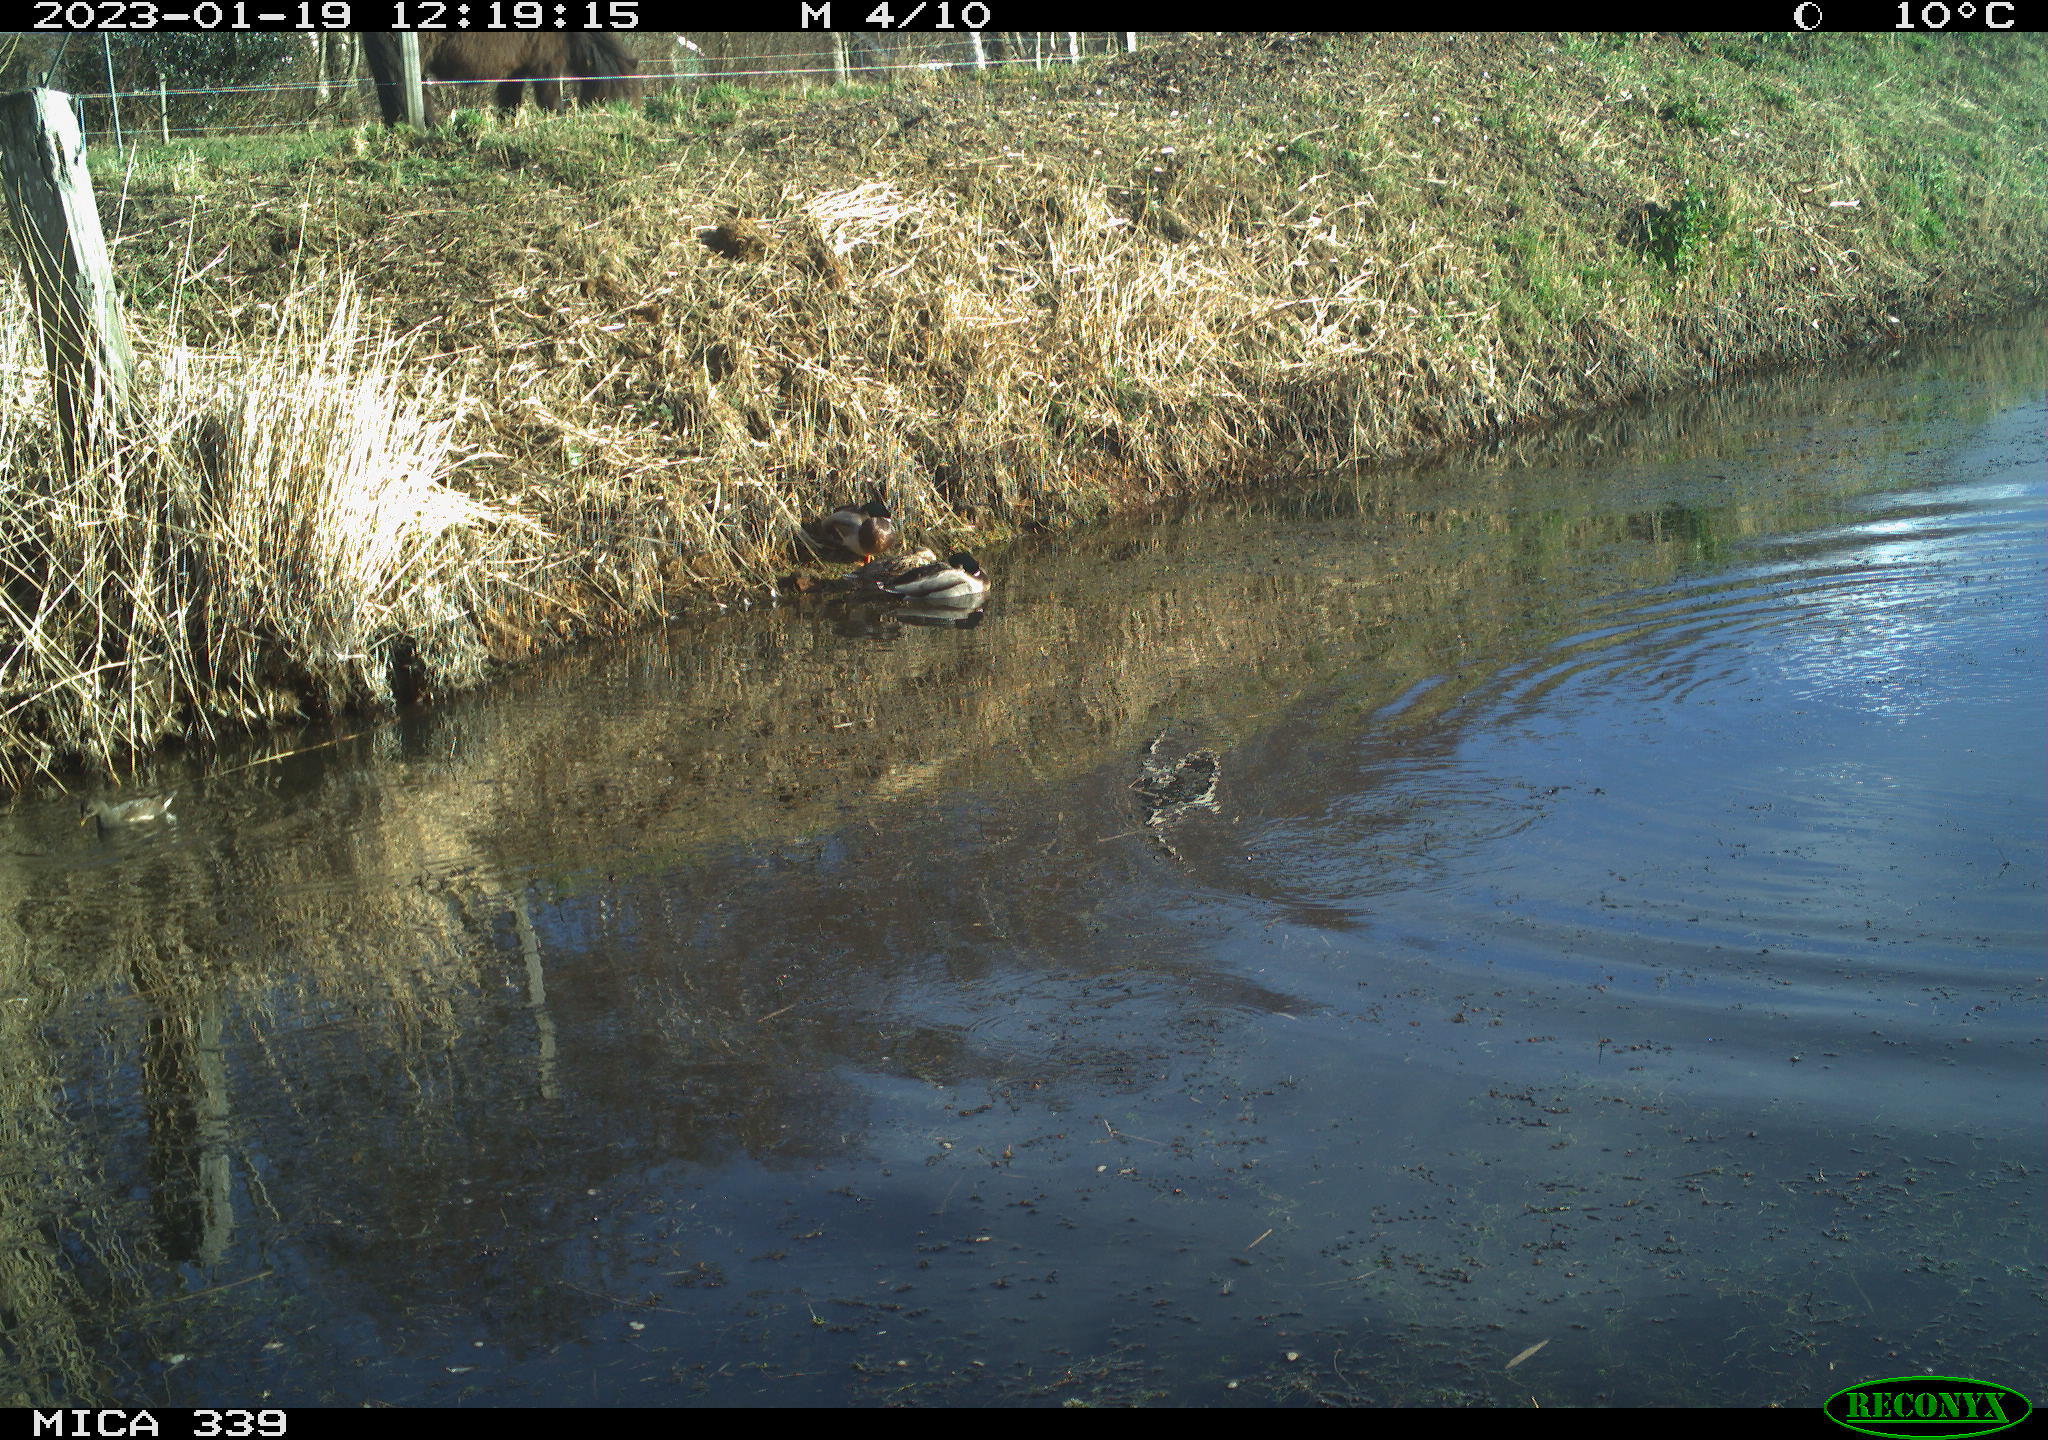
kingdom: Animalia
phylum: Chordata
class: Aves
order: Gruiformes
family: Rallidae
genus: Gallinula
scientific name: Gallinula chloropus
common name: Common moorhen
